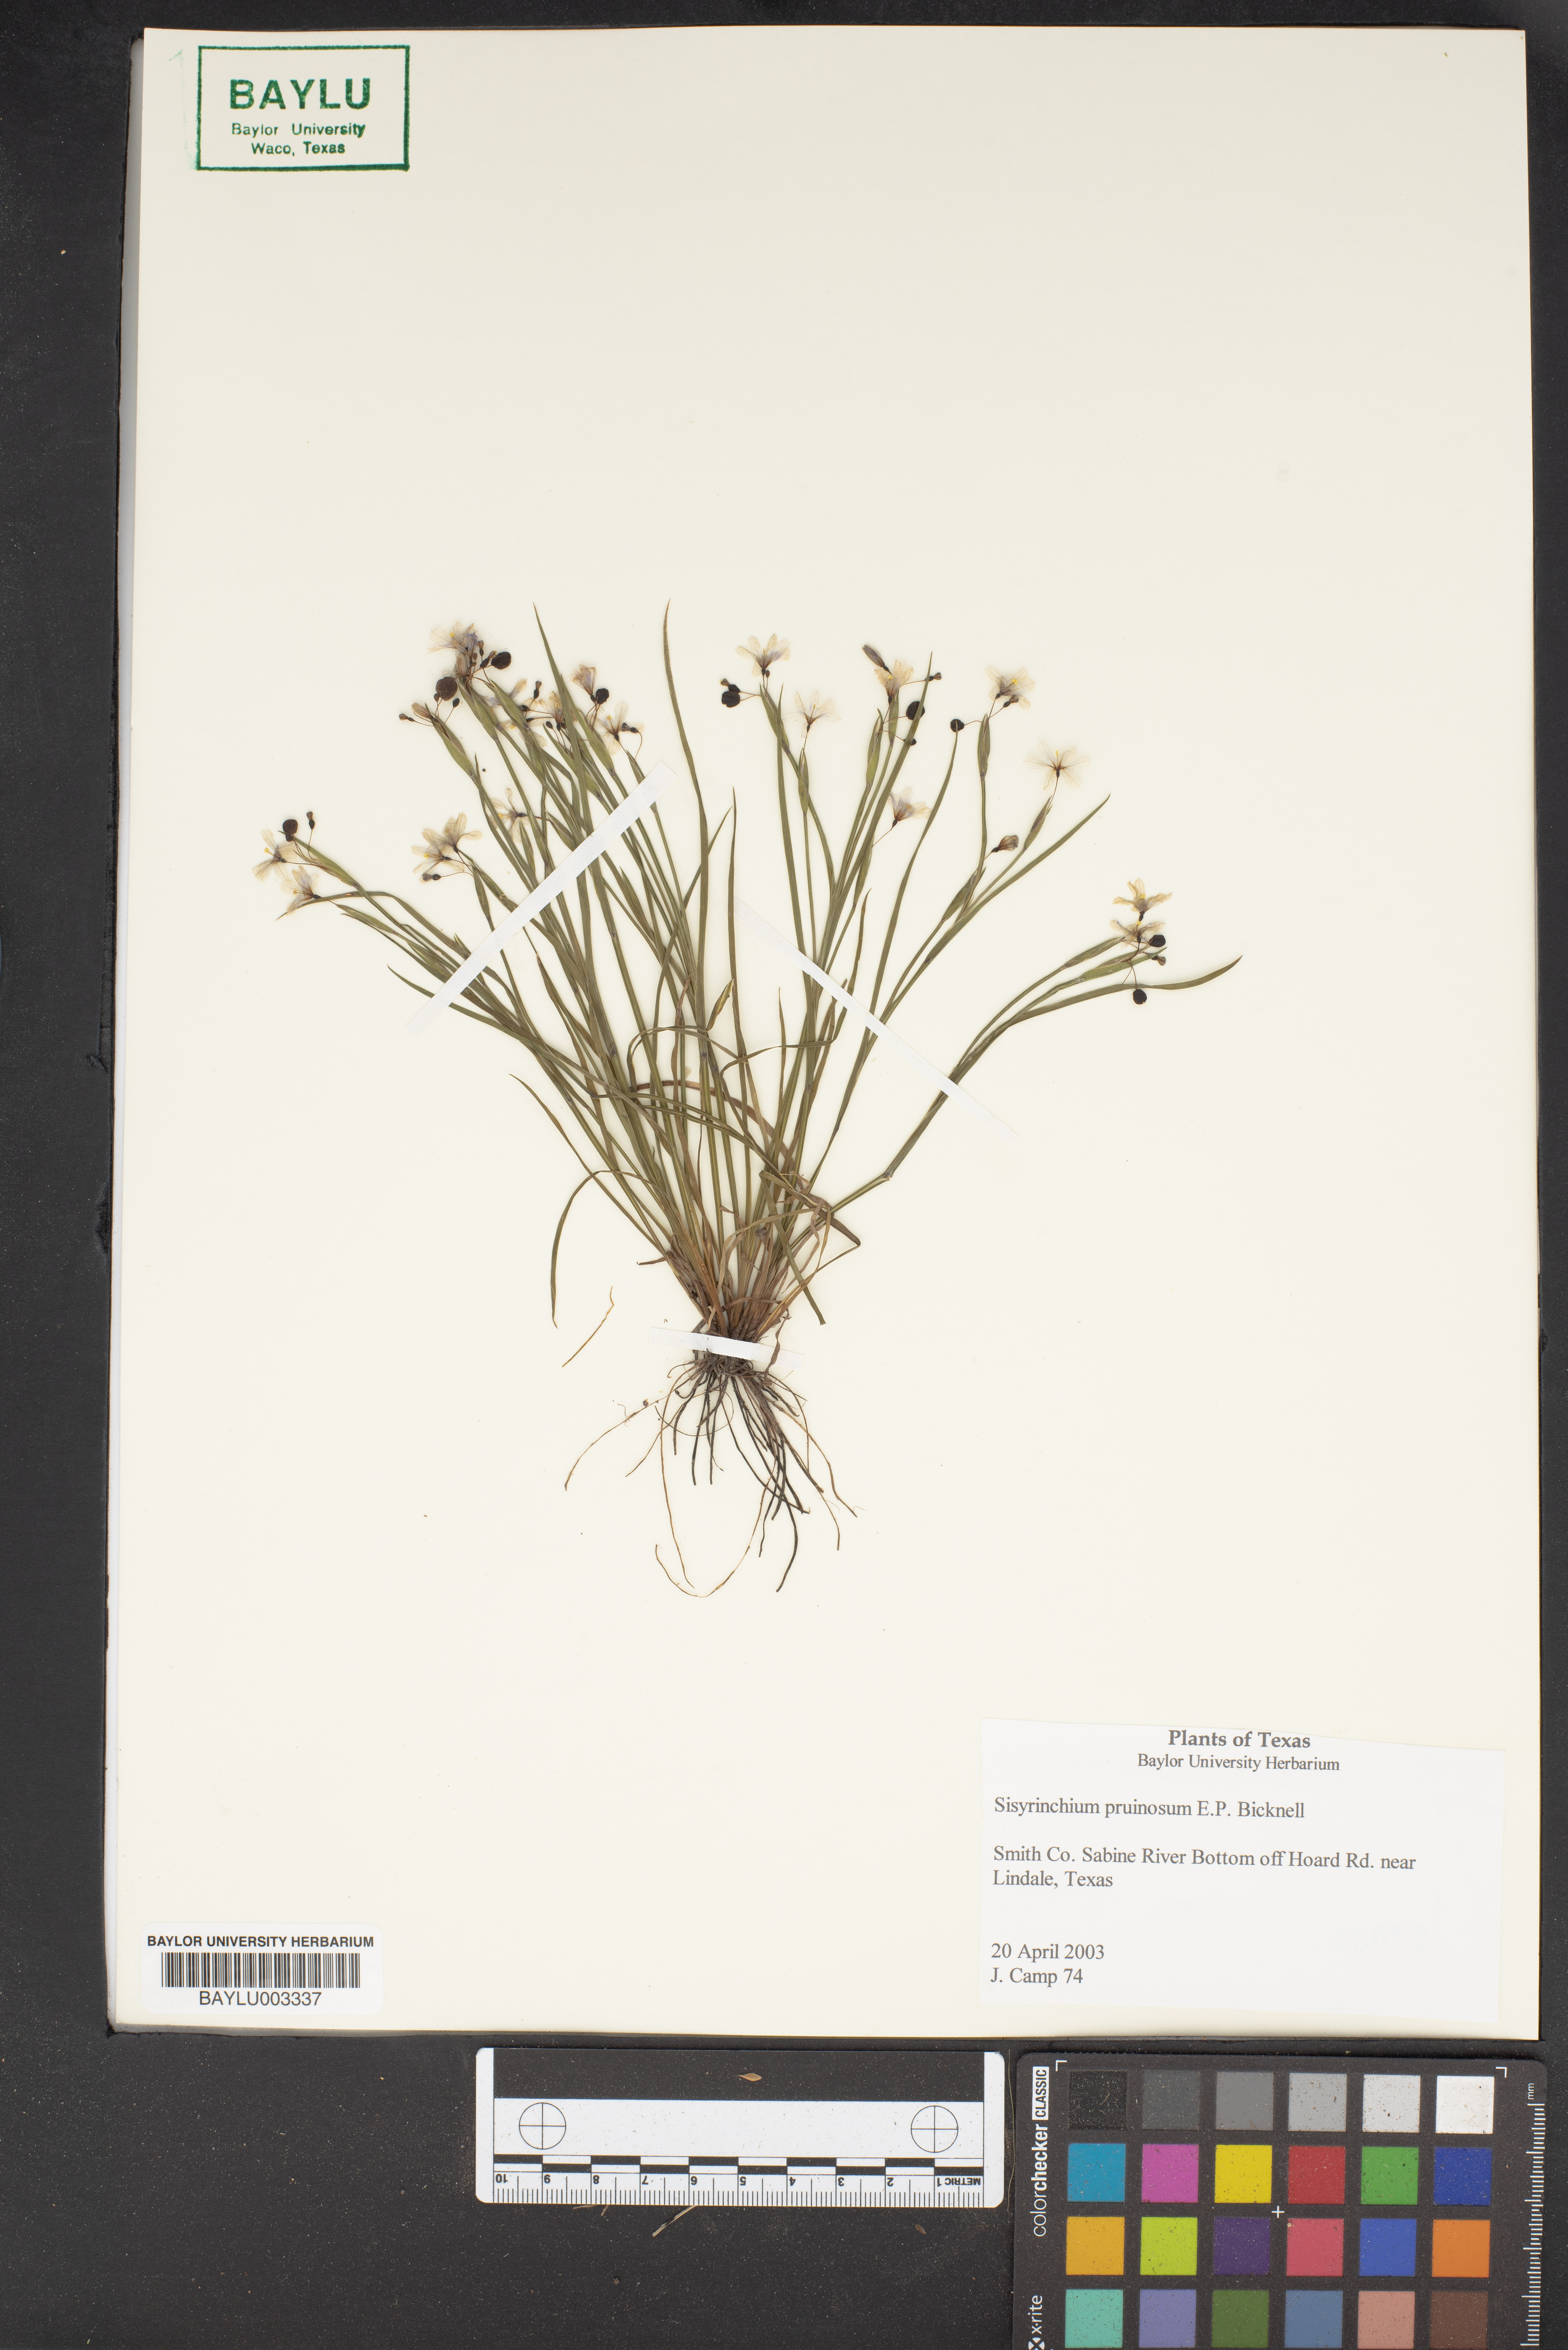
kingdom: Plantae
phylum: Tracheophyta
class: Liliopsida
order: Asparagales
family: Iridaceae
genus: Sisyrinchium
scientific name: Sisyrinchium pruinosum
